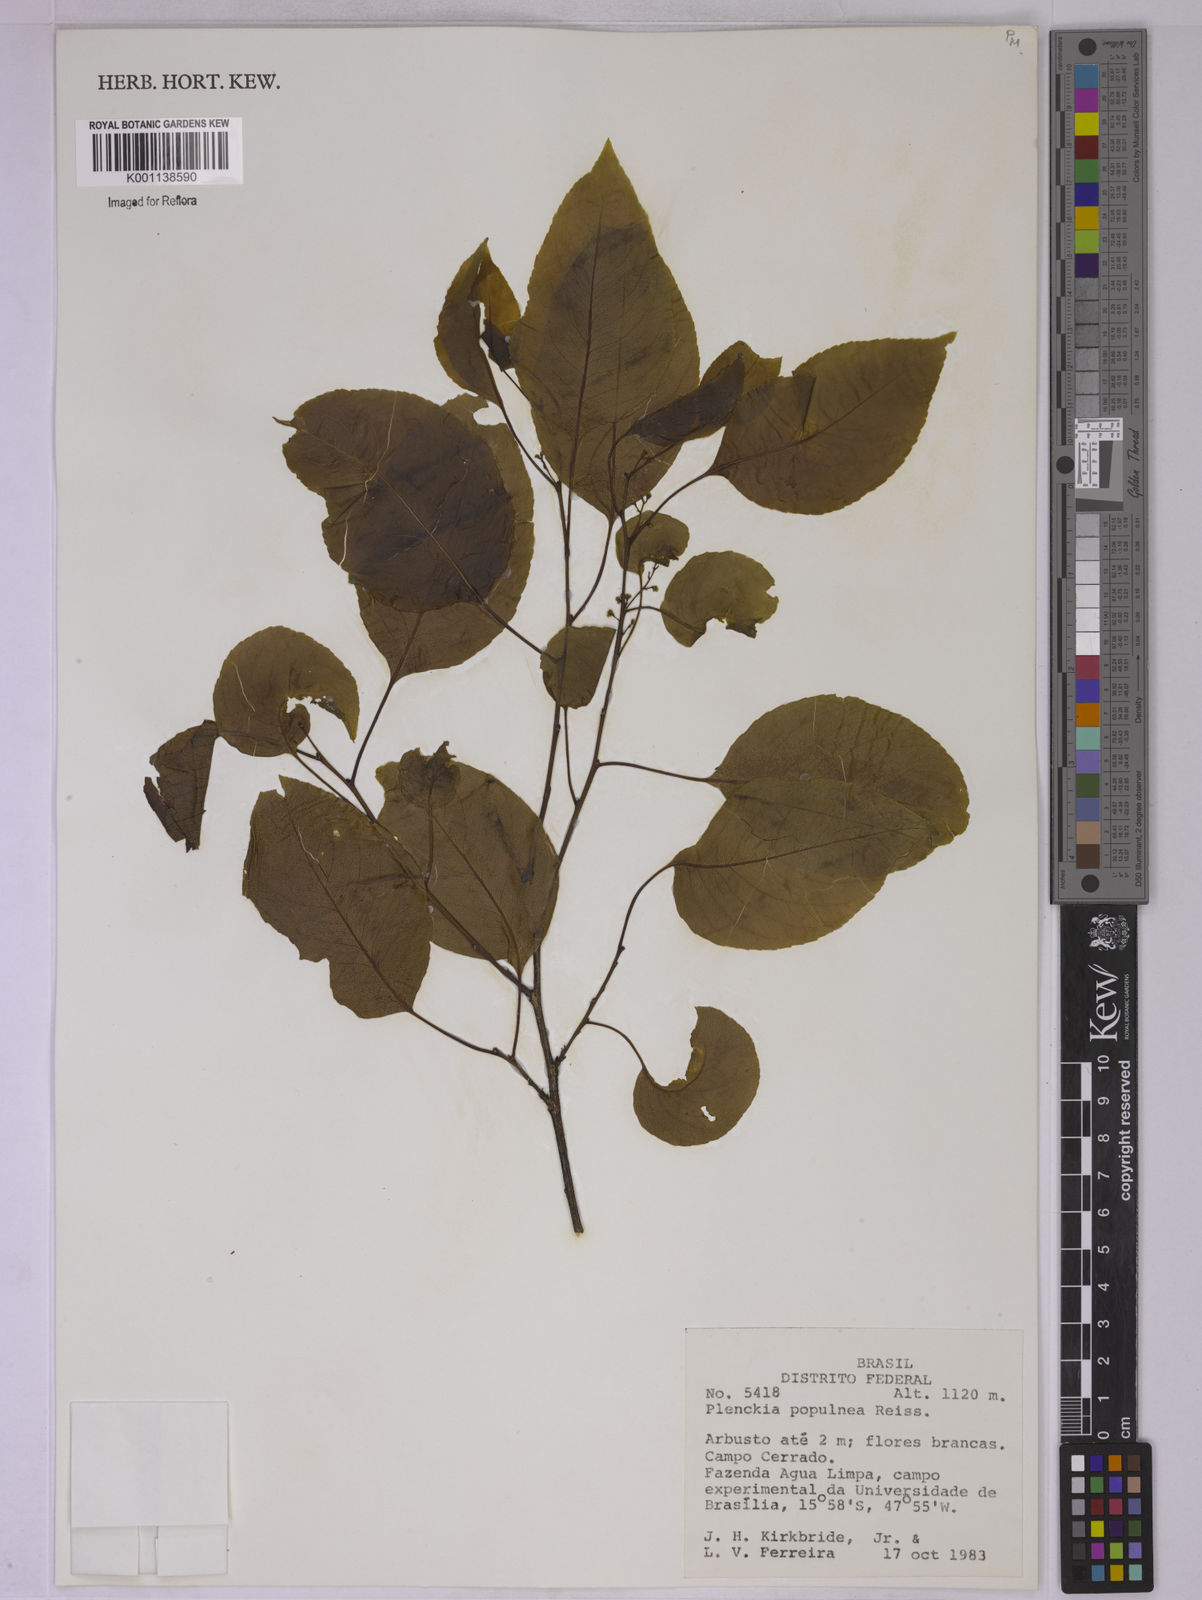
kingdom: Plantae
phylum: Tracheophyta
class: Magnoliopsida
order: Celastrales
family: Celastraceae
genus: Plenckia
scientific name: Plenckia populnea
